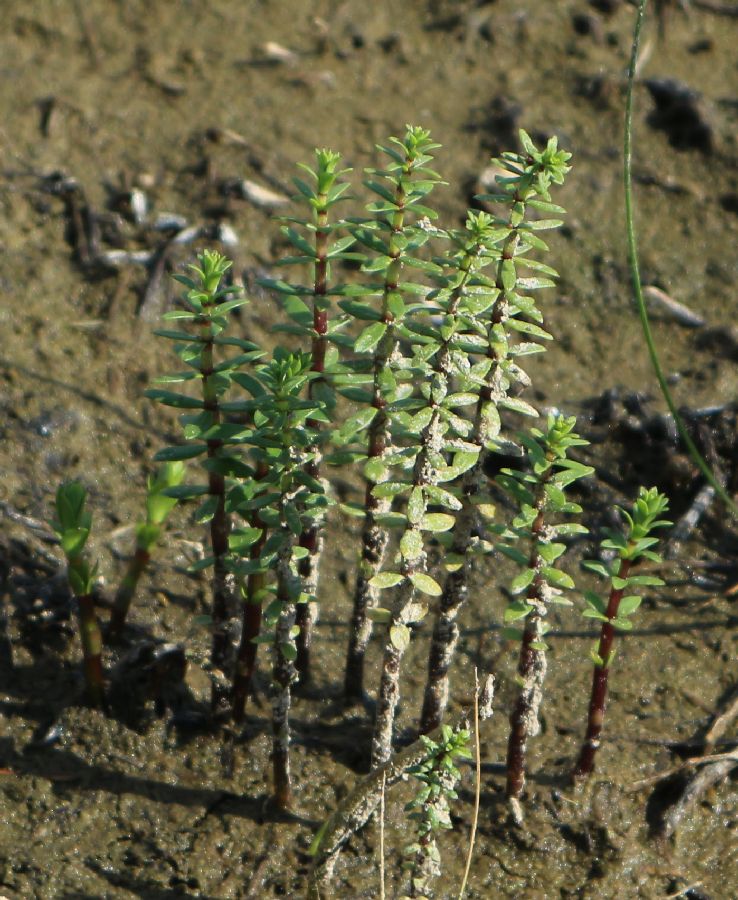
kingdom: Plantae
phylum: Tracheophyta
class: Magnoliopsida
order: Lamiales
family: Plantaginaceae
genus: Hippuris
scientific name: Hippuris tetraphylla
